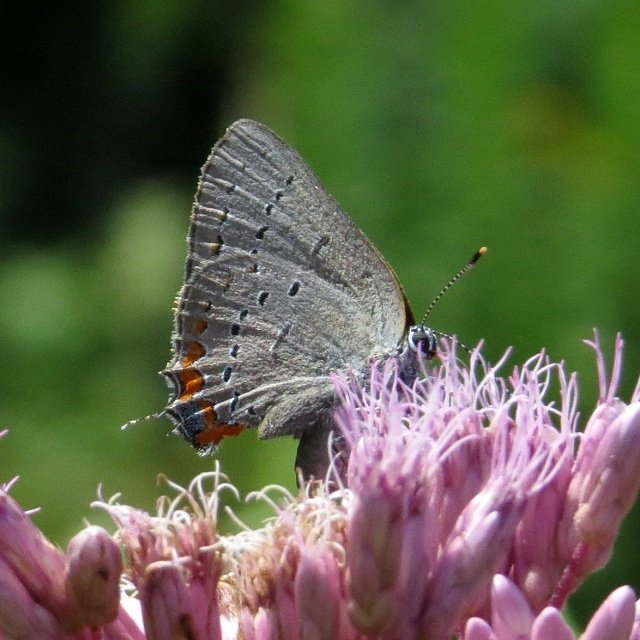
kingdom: Animalia
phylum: Arthropoda
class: Insecta
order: Lepidoptera
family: Lycaenidae
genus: Strymon
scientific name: Strymon acadica
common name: Acadian Hairstreak
